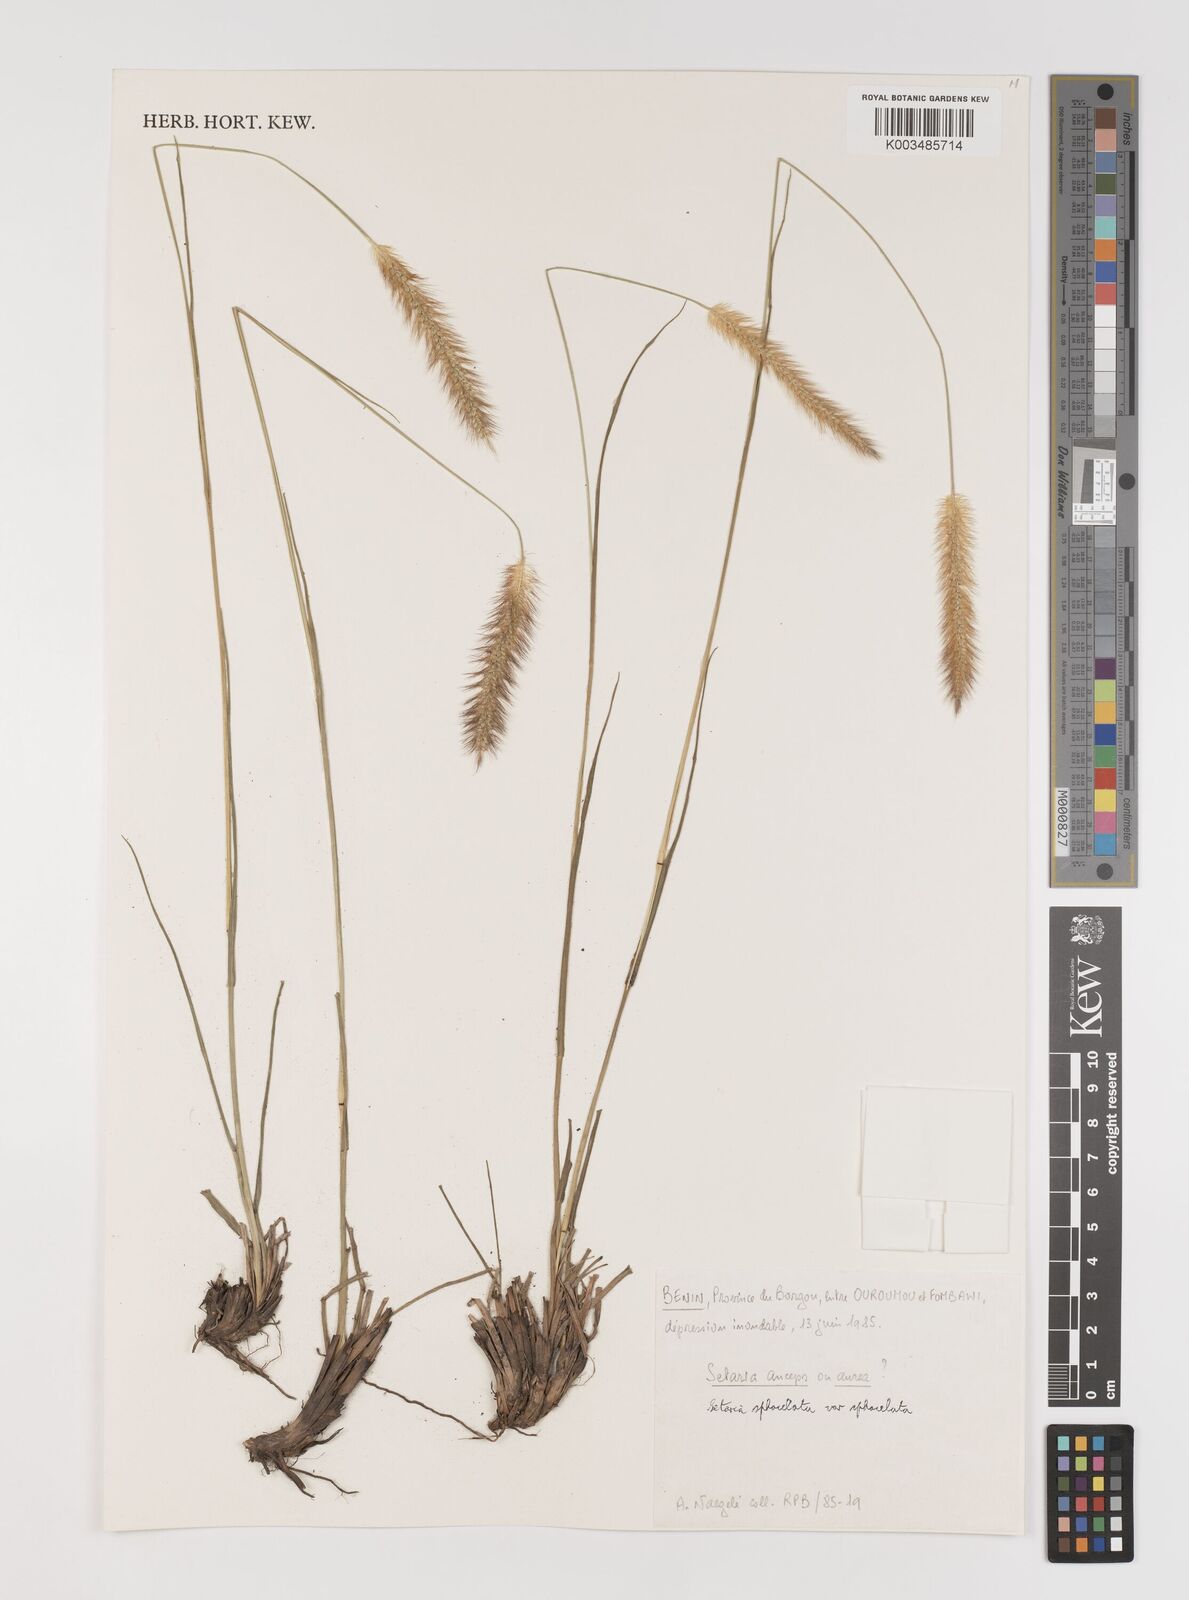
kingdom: Plantae
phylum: Tracheophyta
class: Liliopsida
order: Poales
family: Poaceae
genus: Setaria
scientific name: Setaria sphacelata
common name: African bristlegrass
